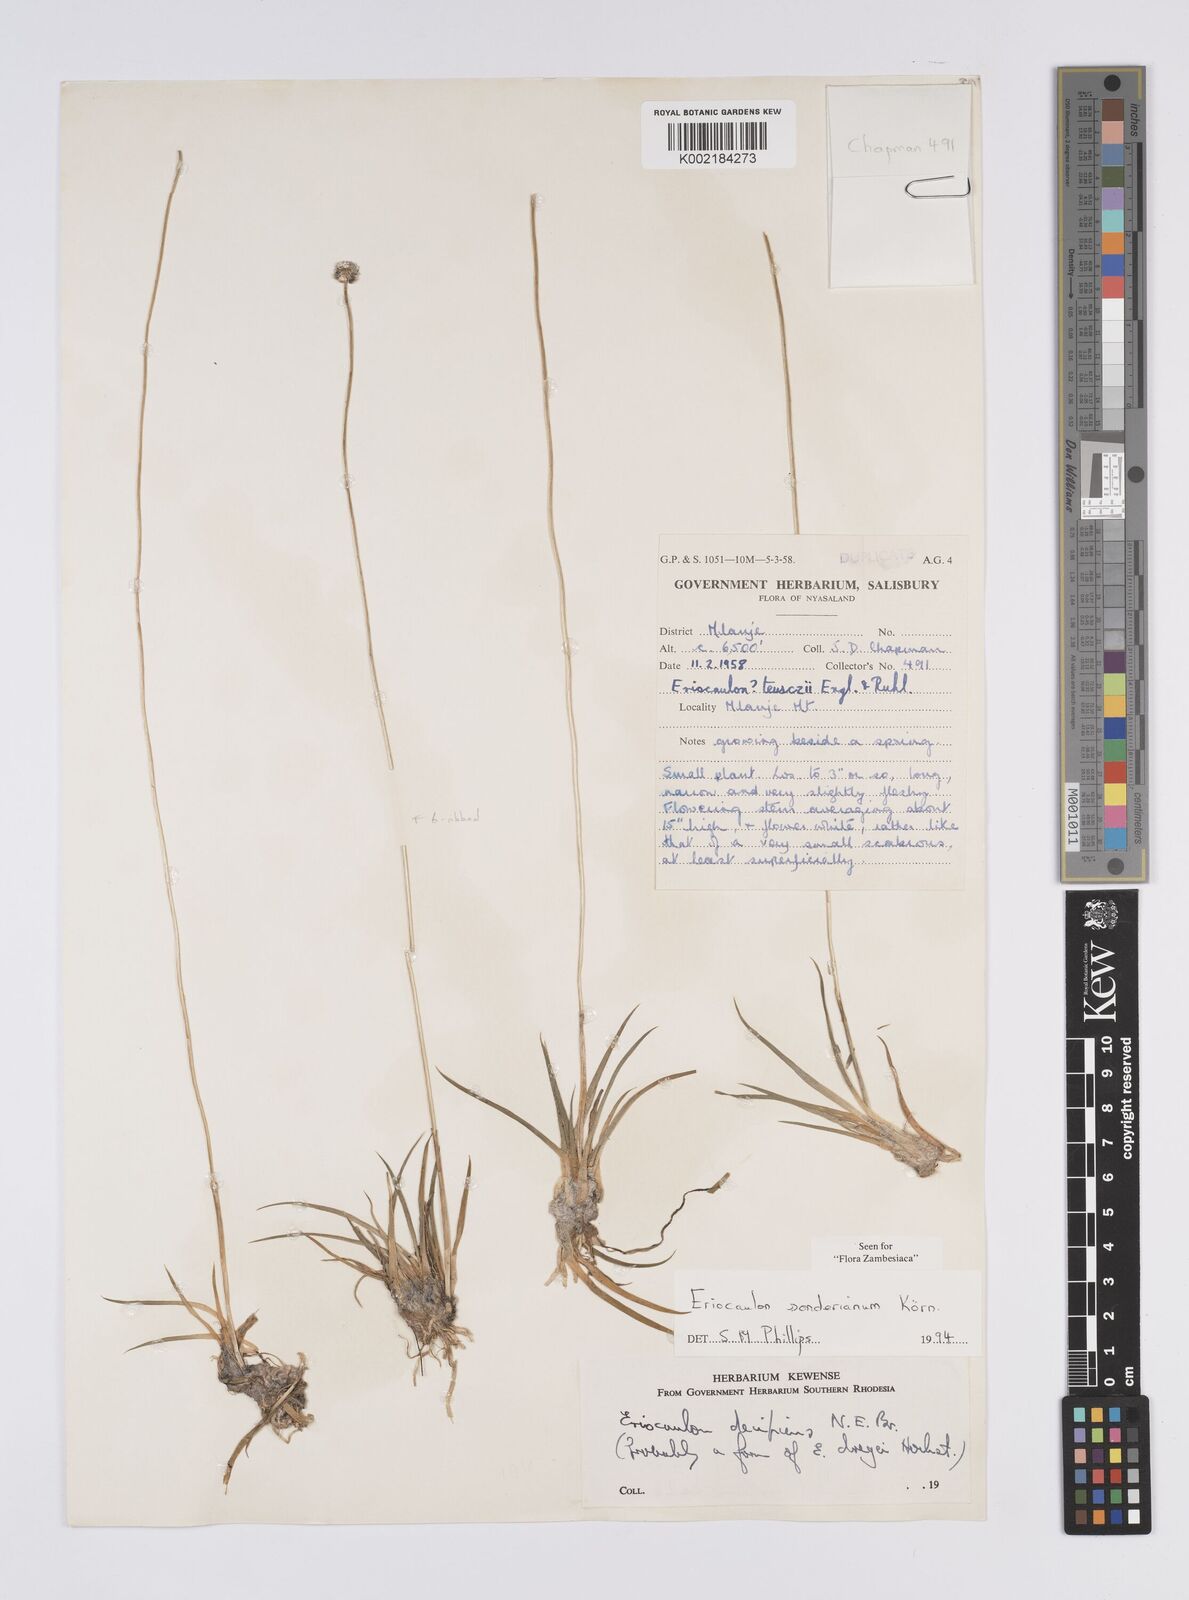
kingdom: Plantae
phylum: Tracheophyta
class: Liliopsida
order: Poales
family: Eriocaulaceae
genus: Eriocaulon
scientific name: Eriocaulon sonderianum
